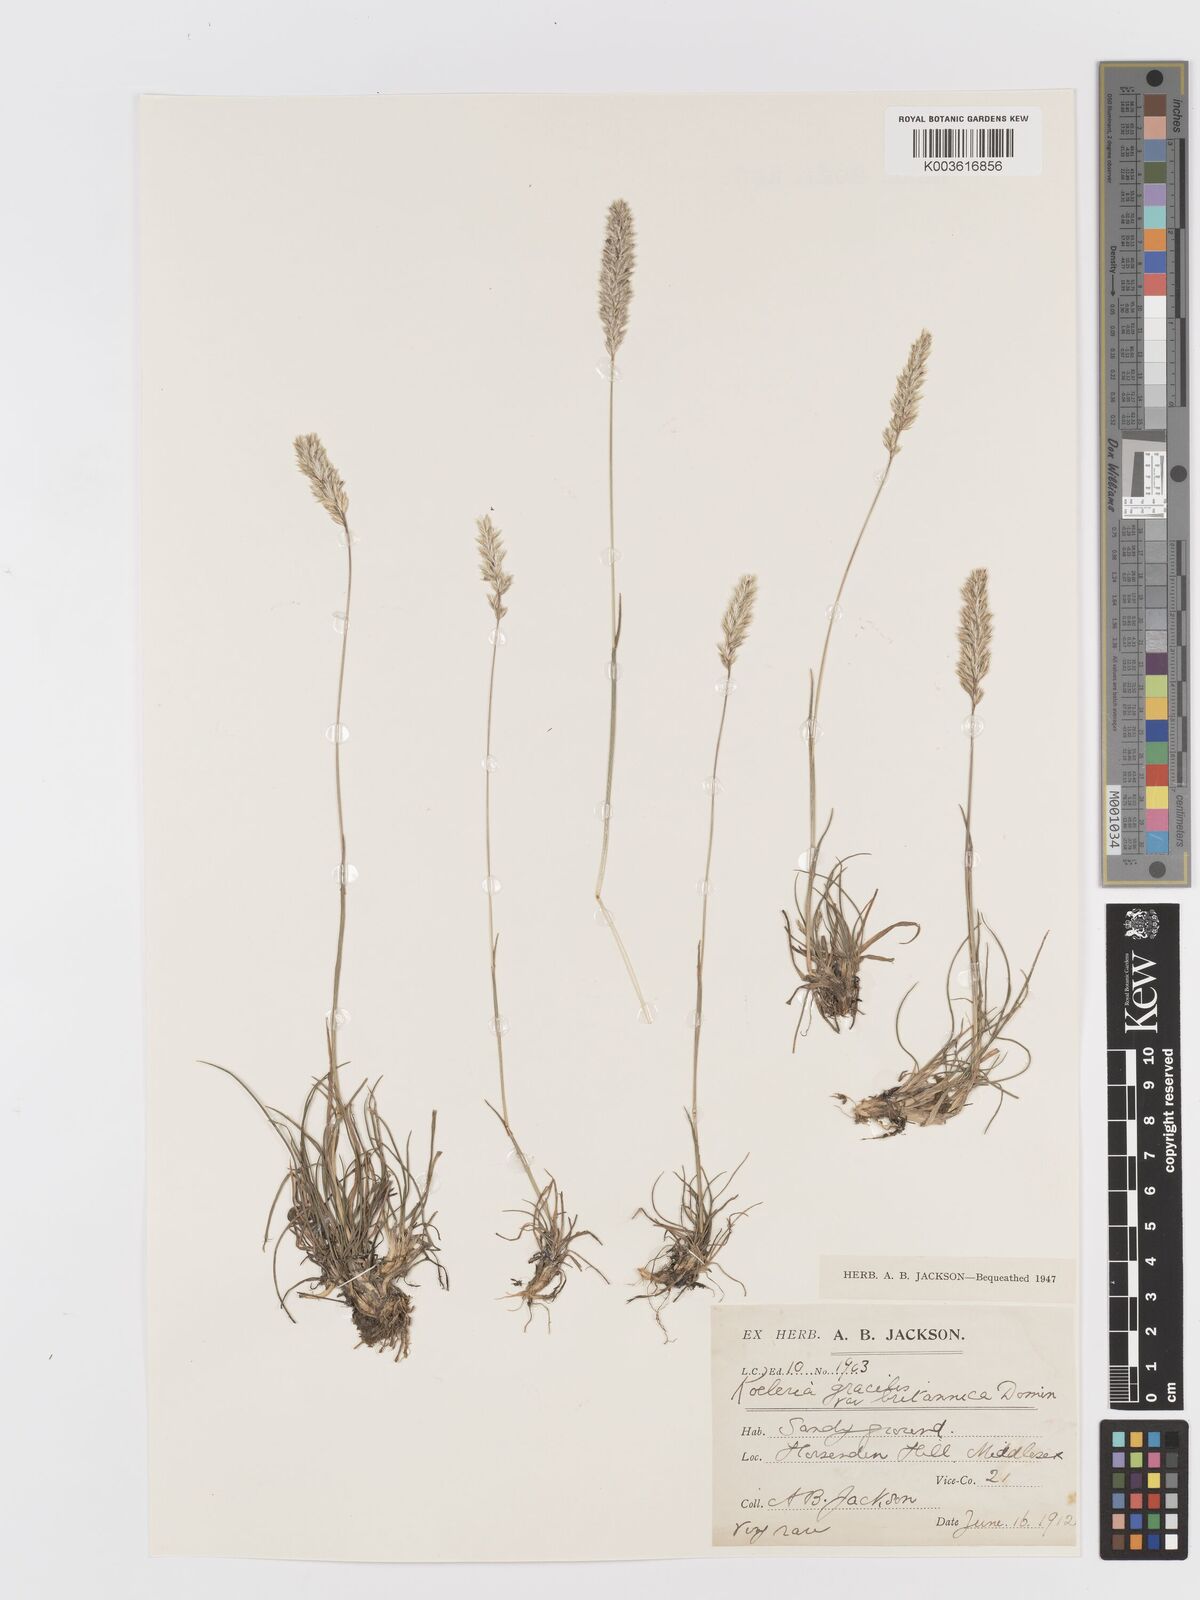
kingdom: Plantae
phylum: Tracheophyta
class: Liliopsida
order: Poales
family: Poaceae
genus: Koeleria
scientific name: Koeleria macrantha
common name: Crested hair-grass
